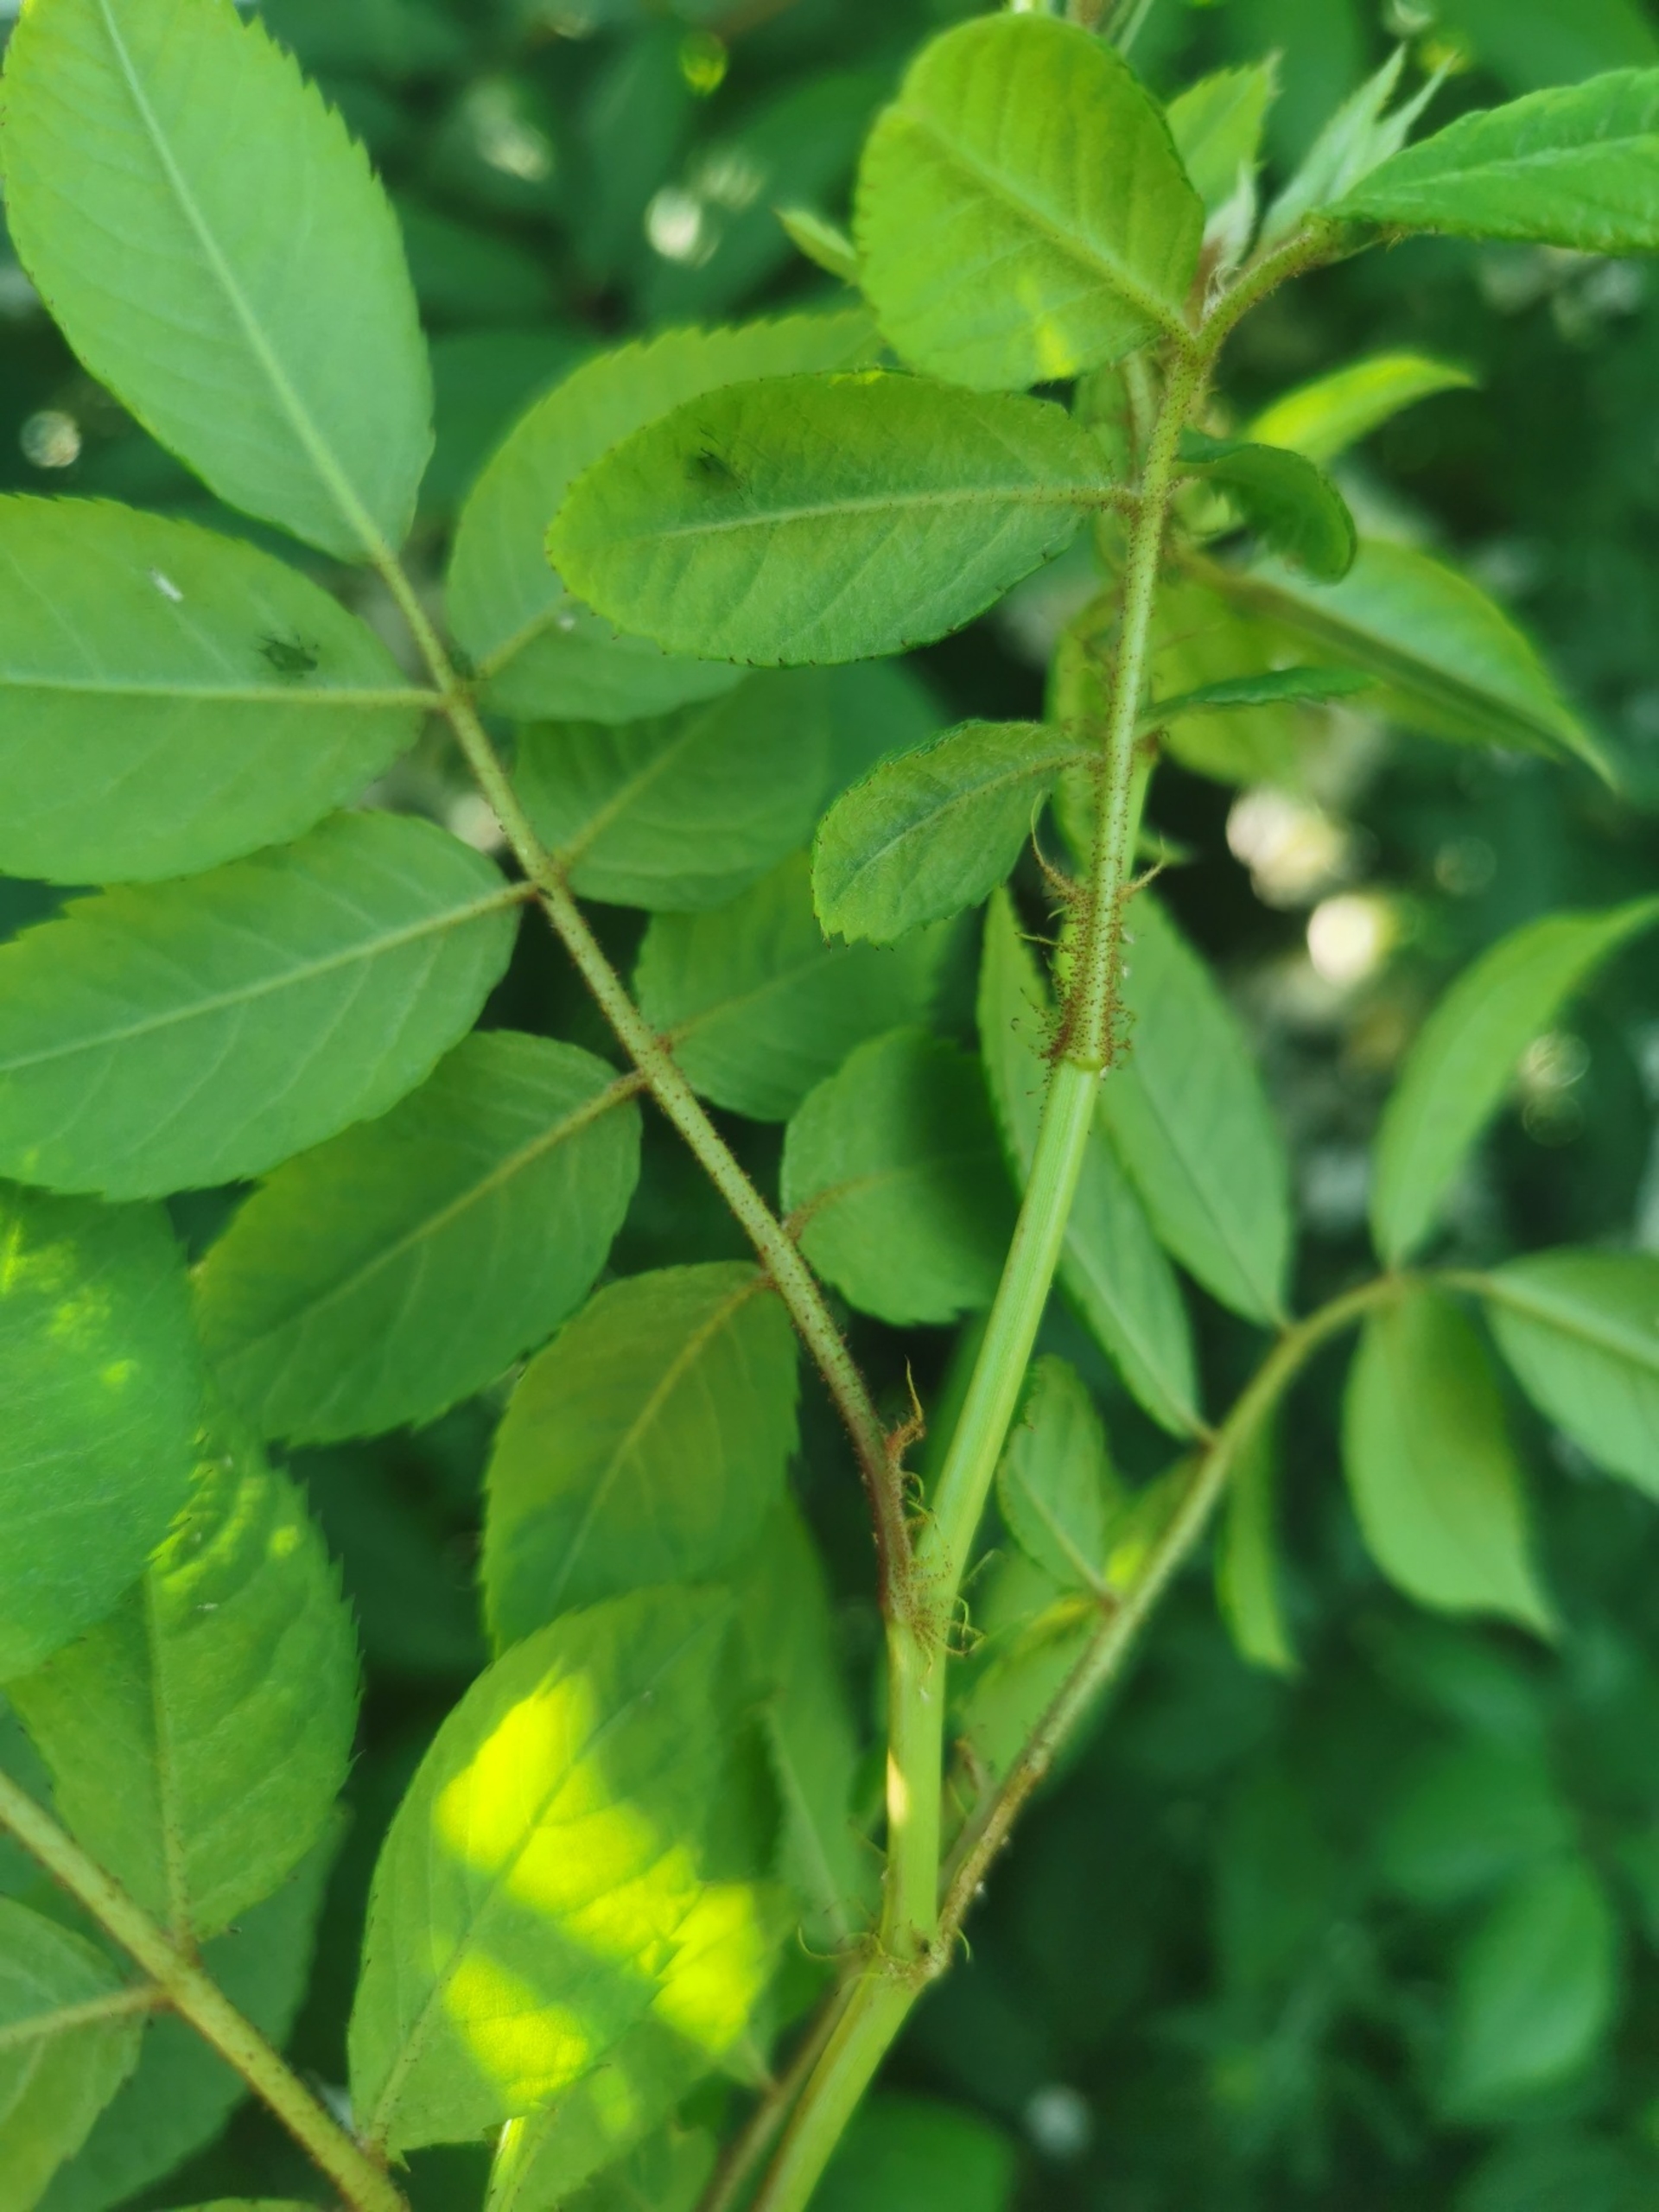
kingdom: Plantae
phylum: Tracheophyta
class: Magnoliopsida
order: Rosales
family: Rosaceae
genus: Rosa
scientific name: Rosa multiflora
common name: Mangeblomstret rose
